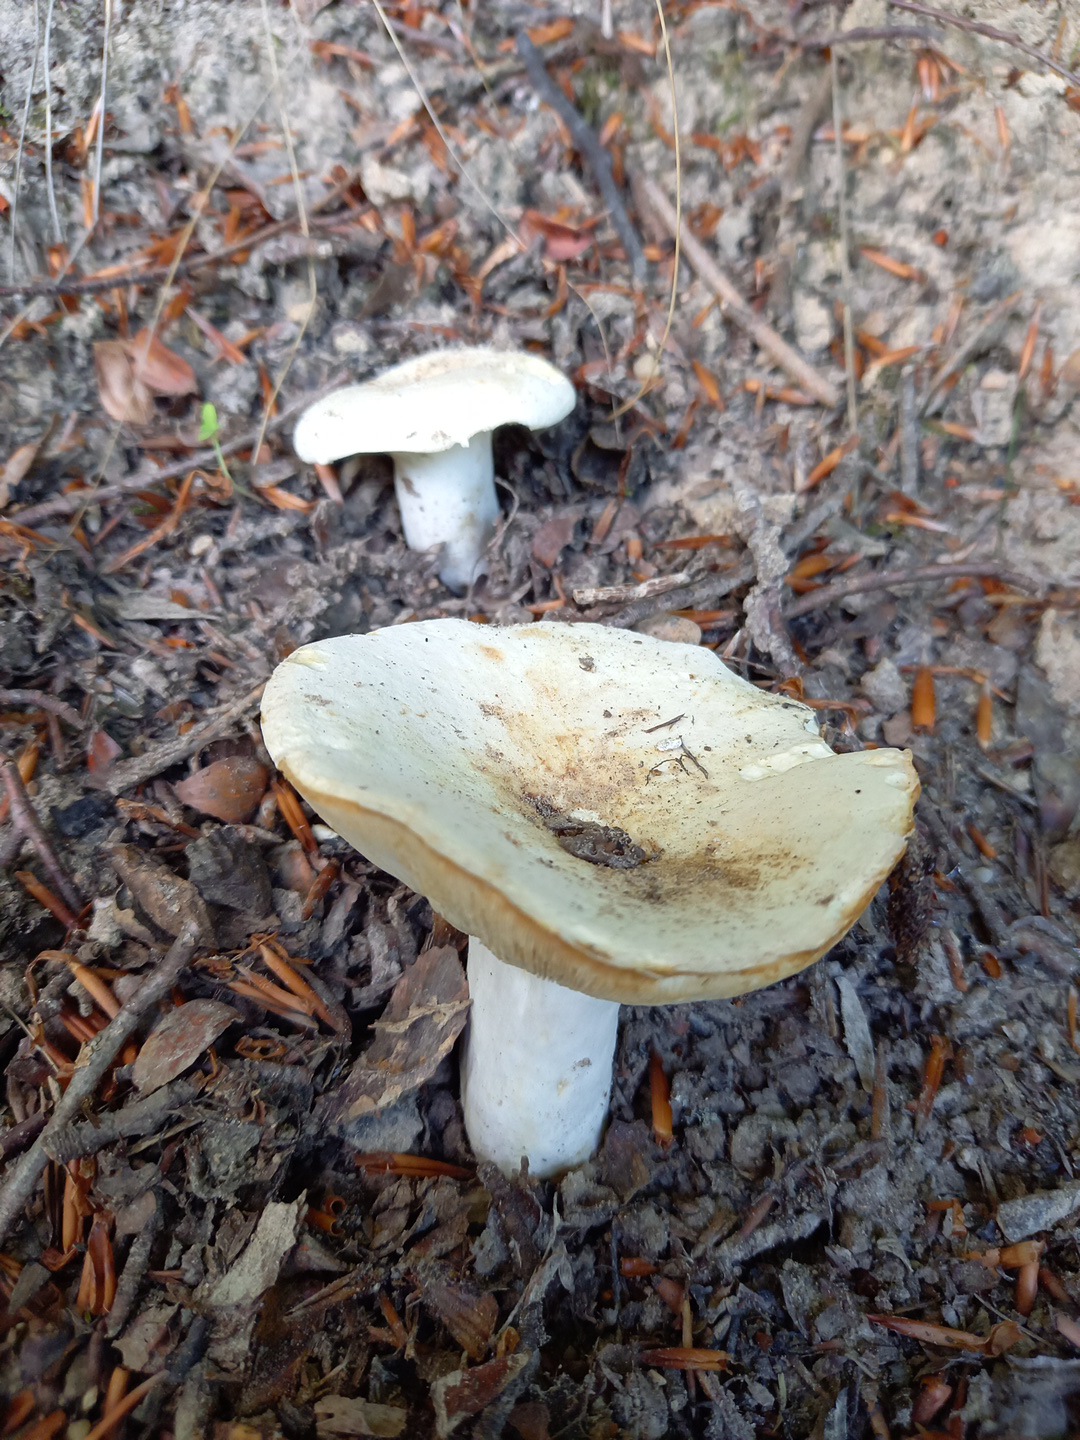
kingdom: Fungi
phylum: Basidiomycota
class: Agaricomycetes
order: Russulales
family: Russulaceae
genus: Lactifluus
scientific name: Lactifluus
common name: mælkehat
